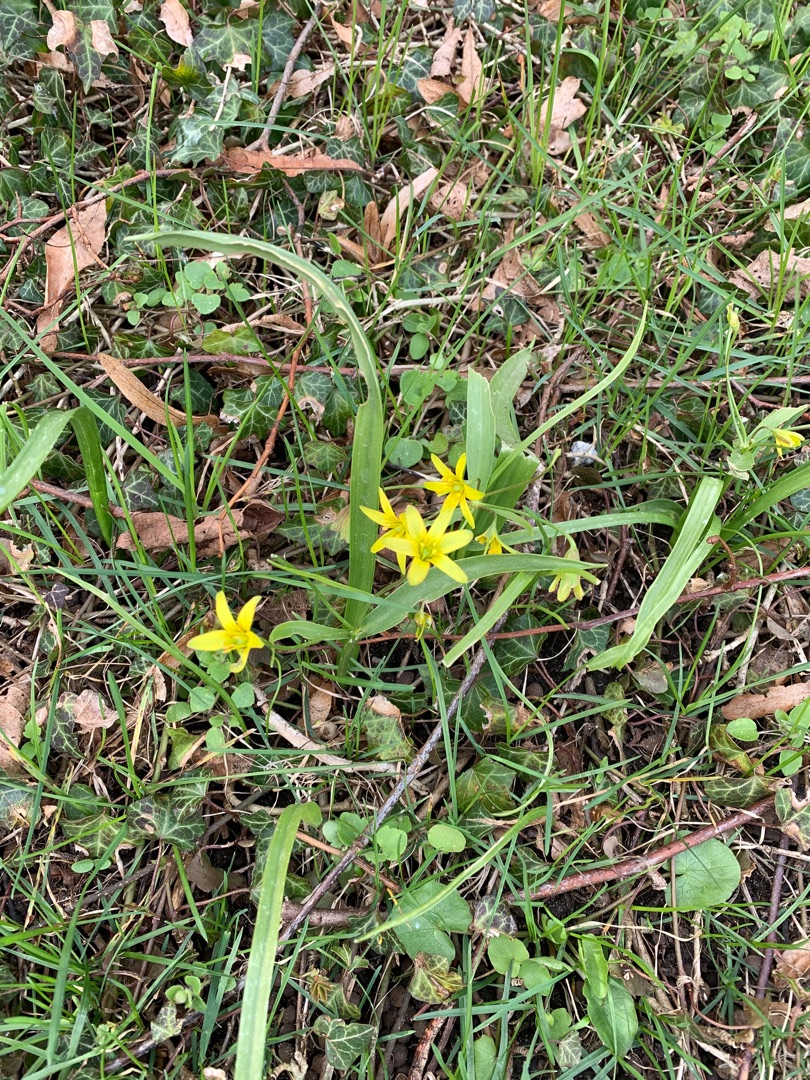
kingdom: Plantae
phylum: Tracheophyta
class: Liliopsida
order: Liliales
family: Liliaceae
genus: Gagea
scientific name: Gagea lutea
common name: Almindelig guldstjerne
